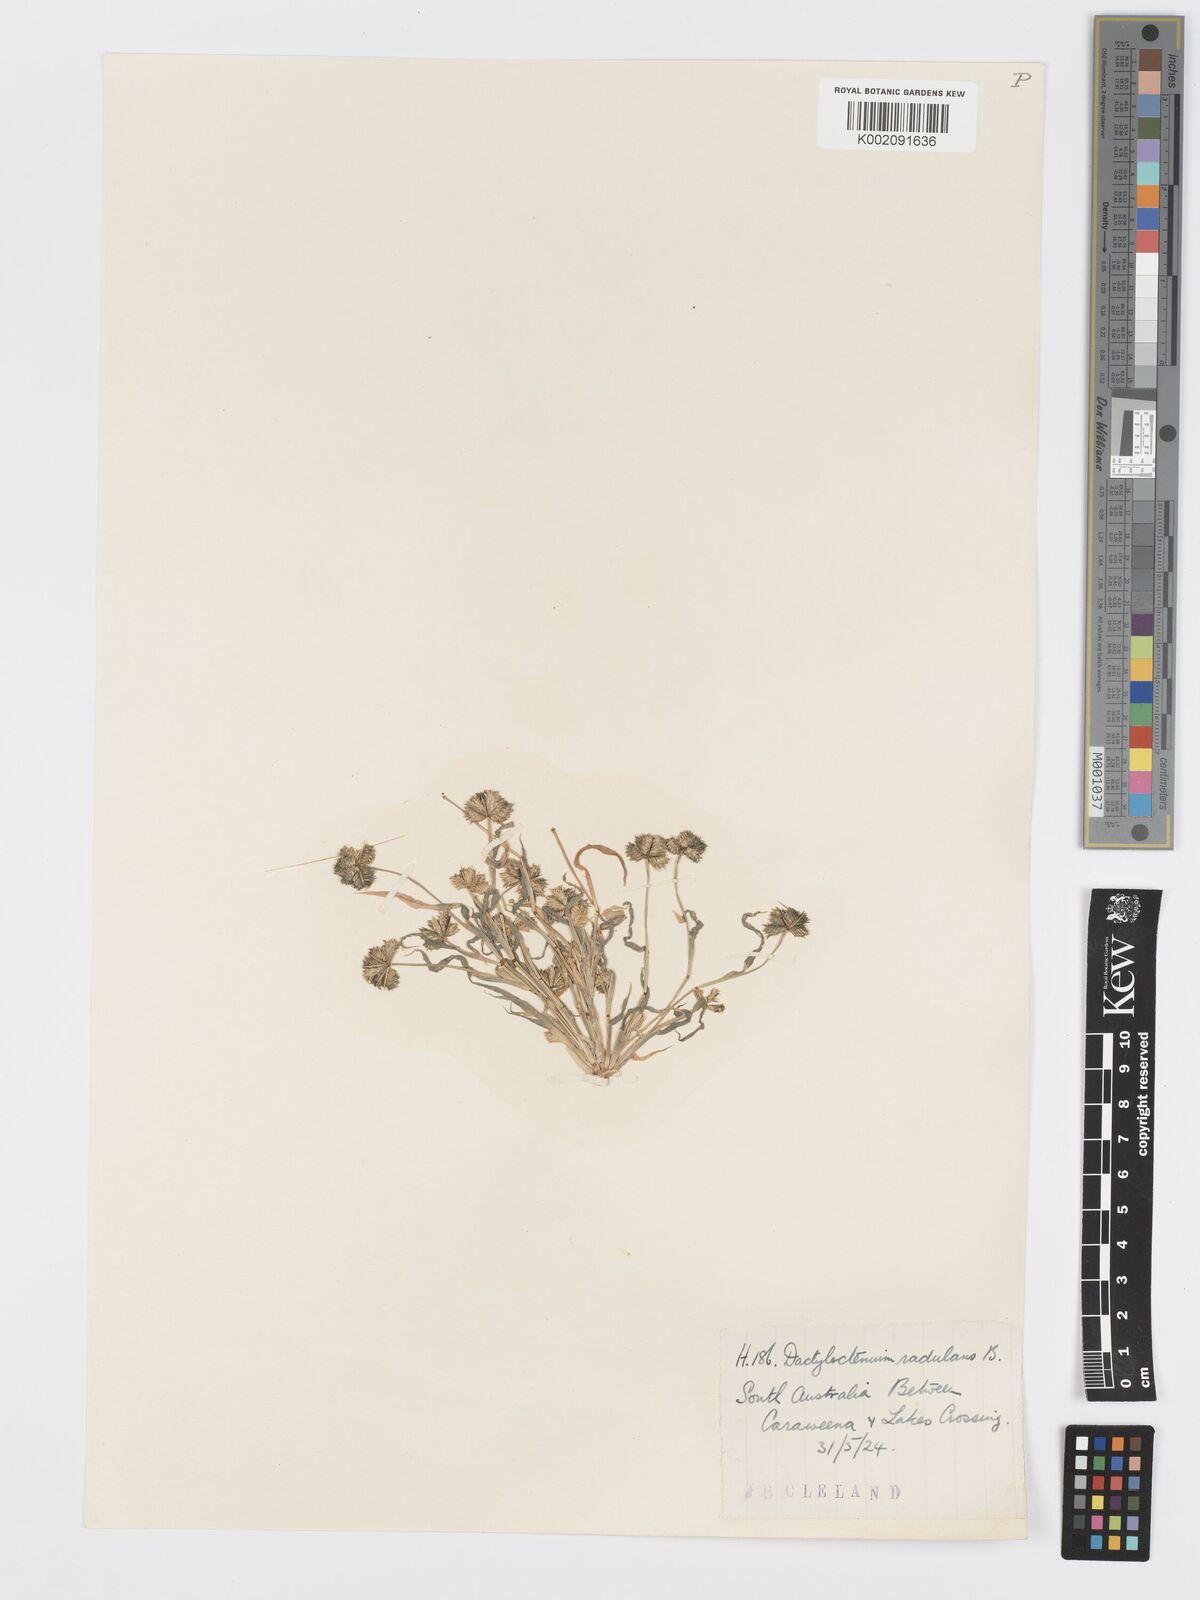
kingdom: Plantae
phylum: Tracheophyta
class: Liliopsida
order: Poales
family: Poaceae
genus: Dactyloctenium
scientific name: Dactyloctenium radulans
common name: Button-grass
